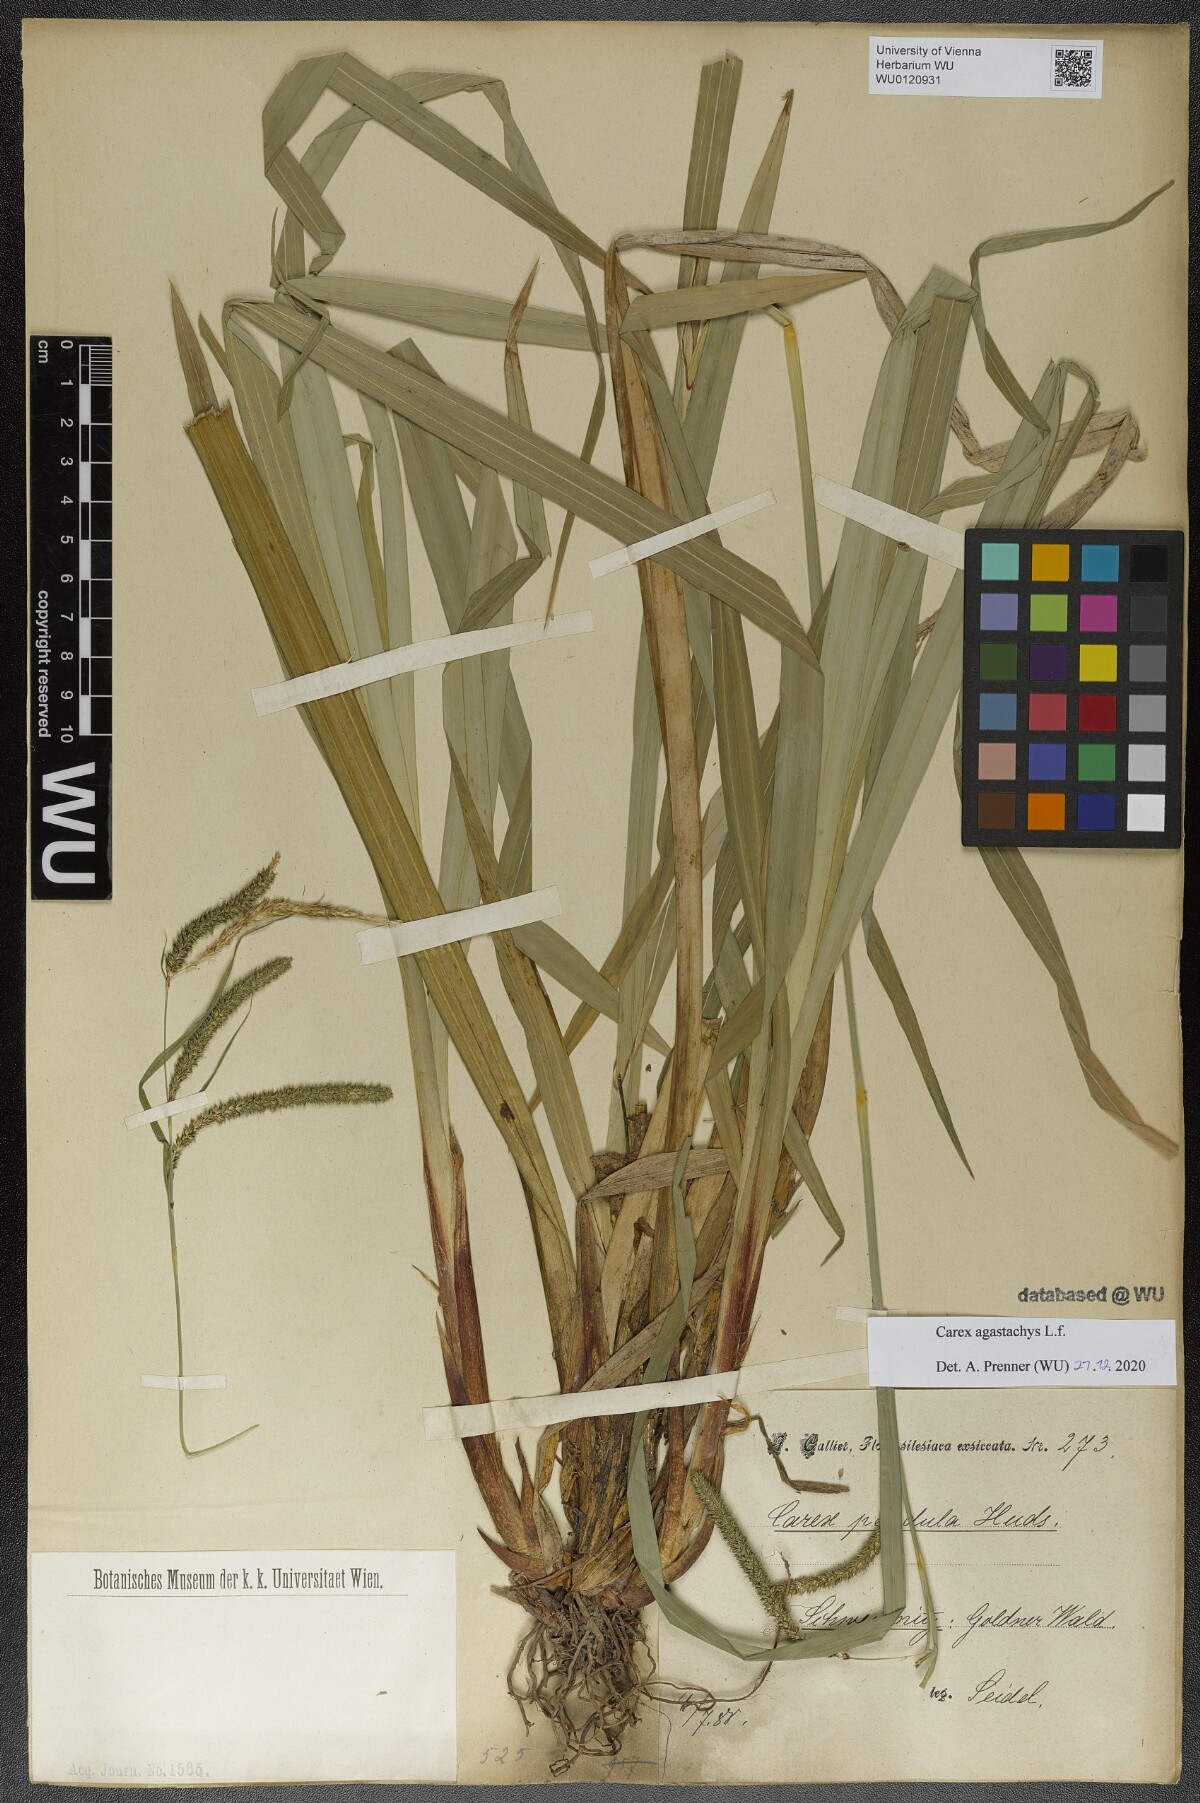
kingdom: Plantae
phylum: Tracheophyta
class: Liliopsida
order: Poales
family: Cyperaceae
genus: Carex
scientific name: Carex agastachys
